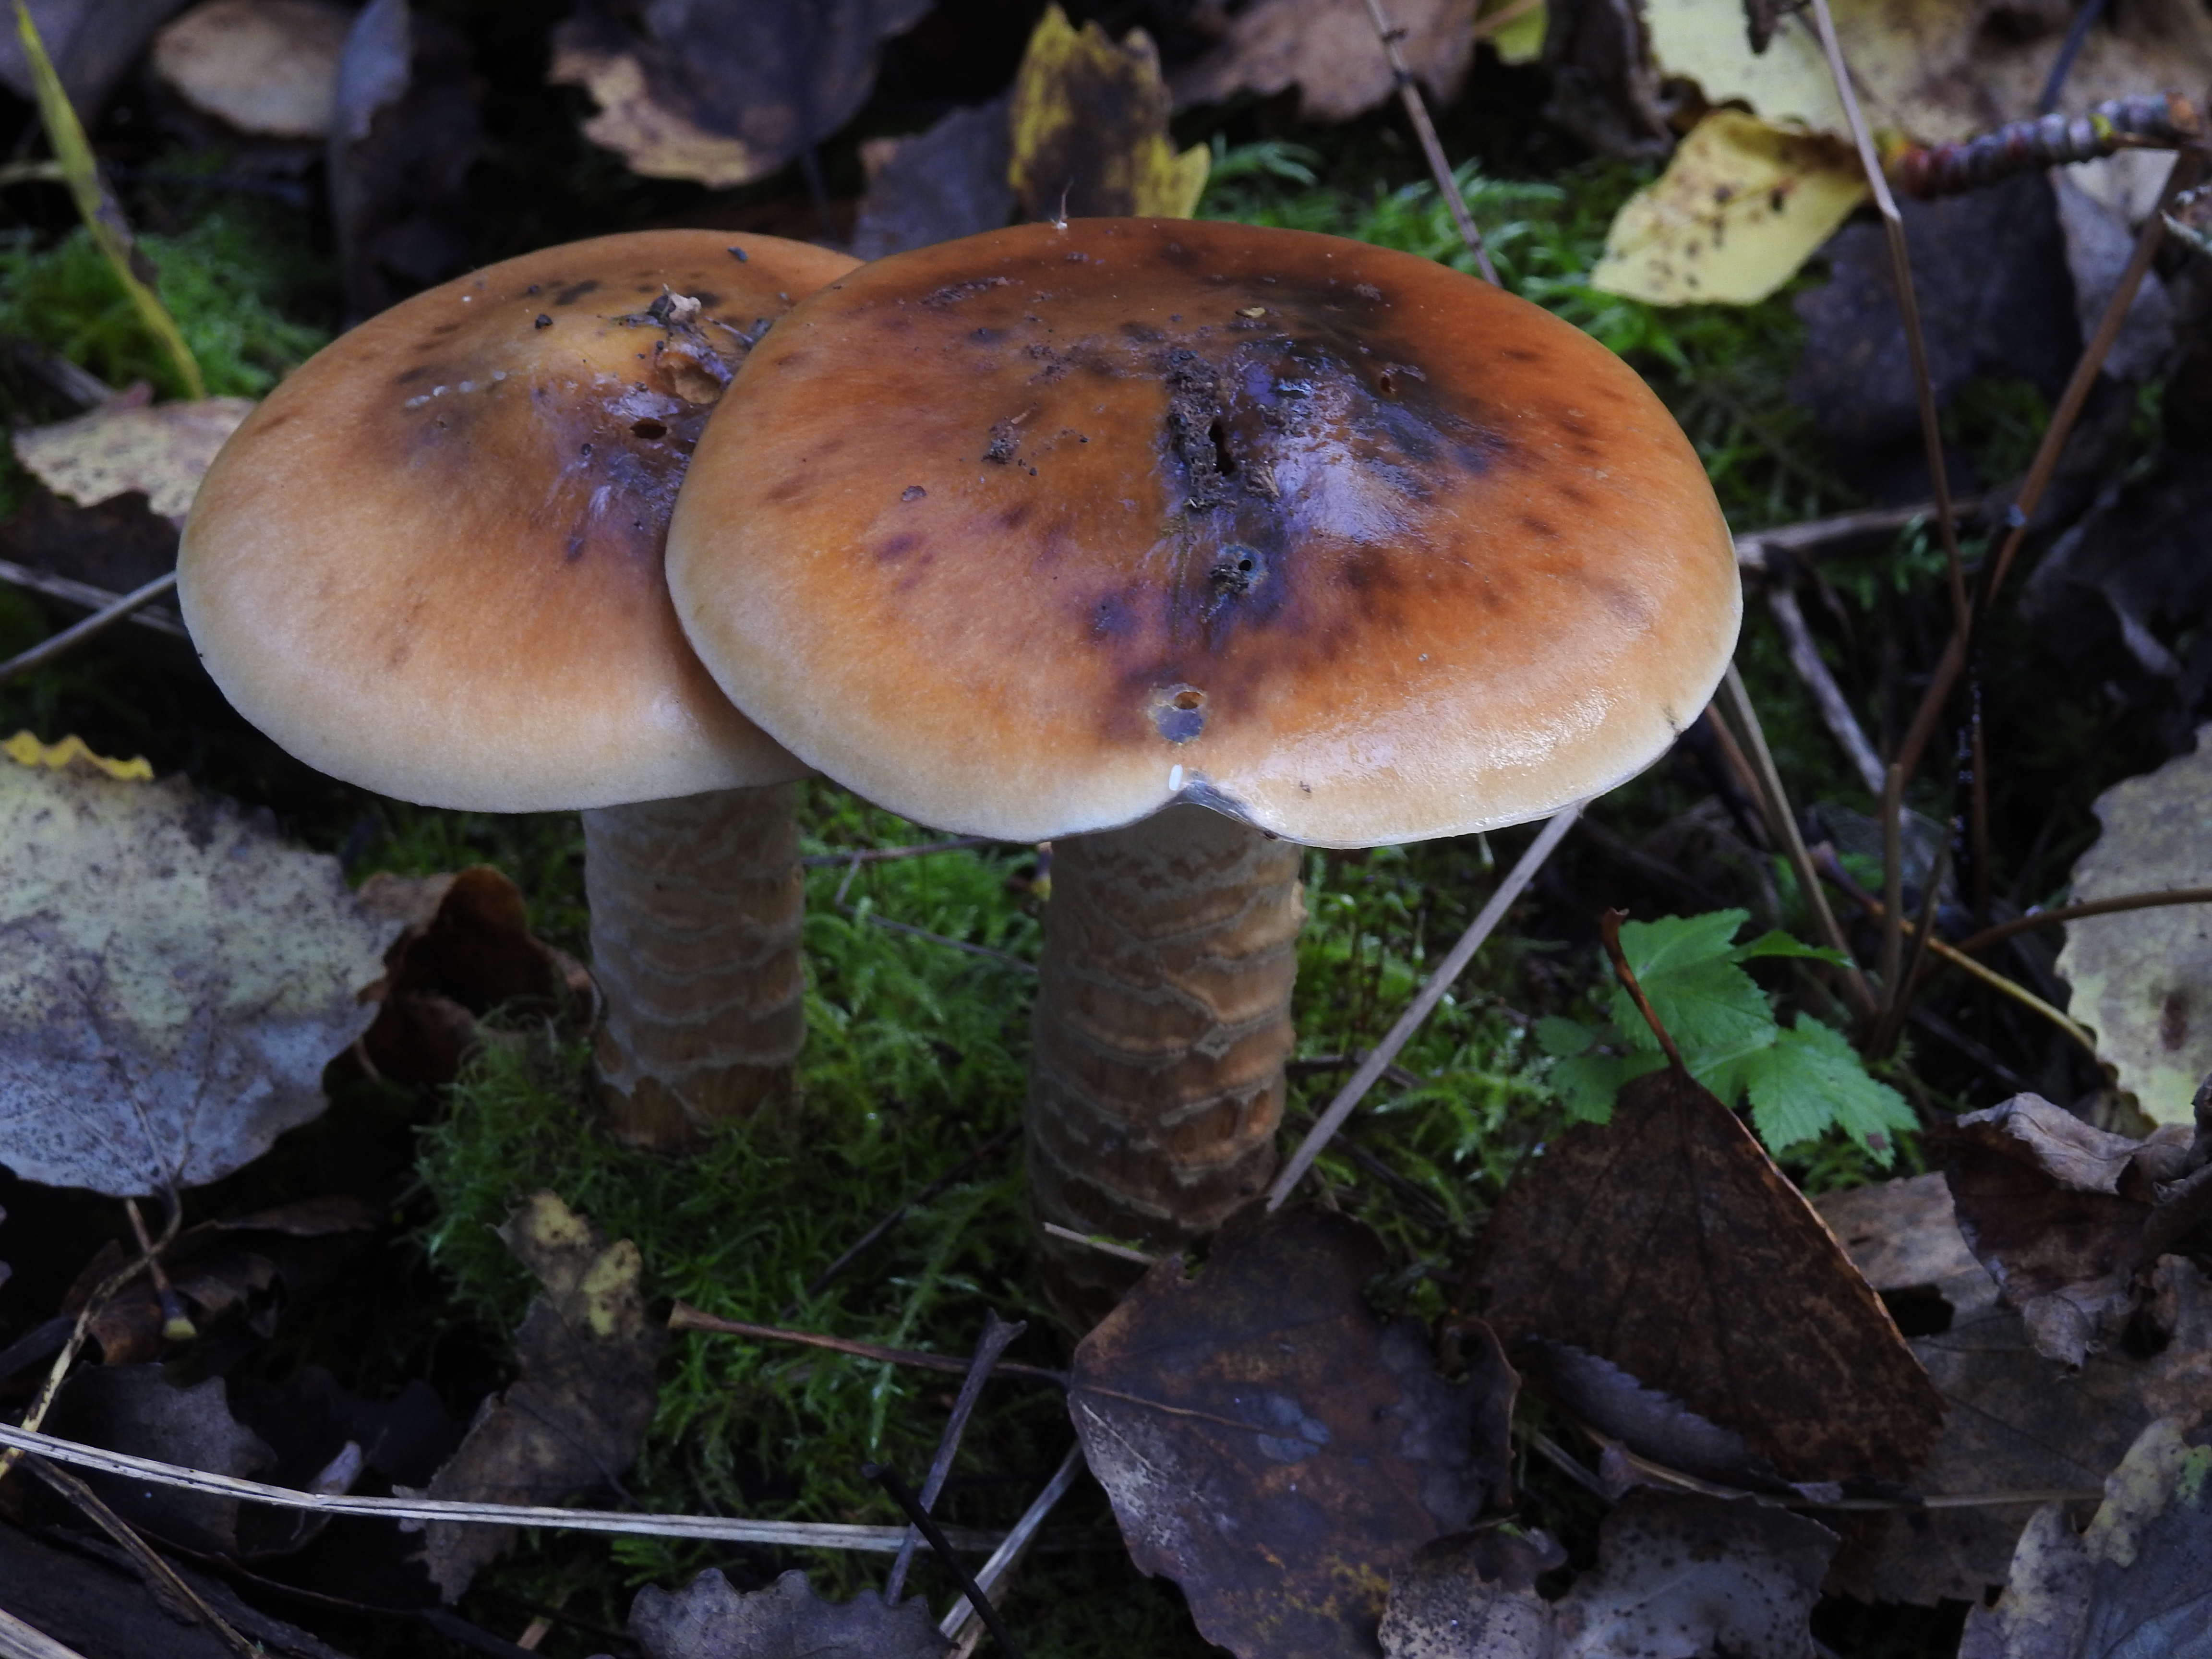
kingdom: Fungi
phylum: Basidiomycota
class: Agaricomycetes
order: Agaricales
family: Cortinariaceae
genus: Cortinarius
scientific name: Cortinarius trivialis
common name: Girdled webcap
